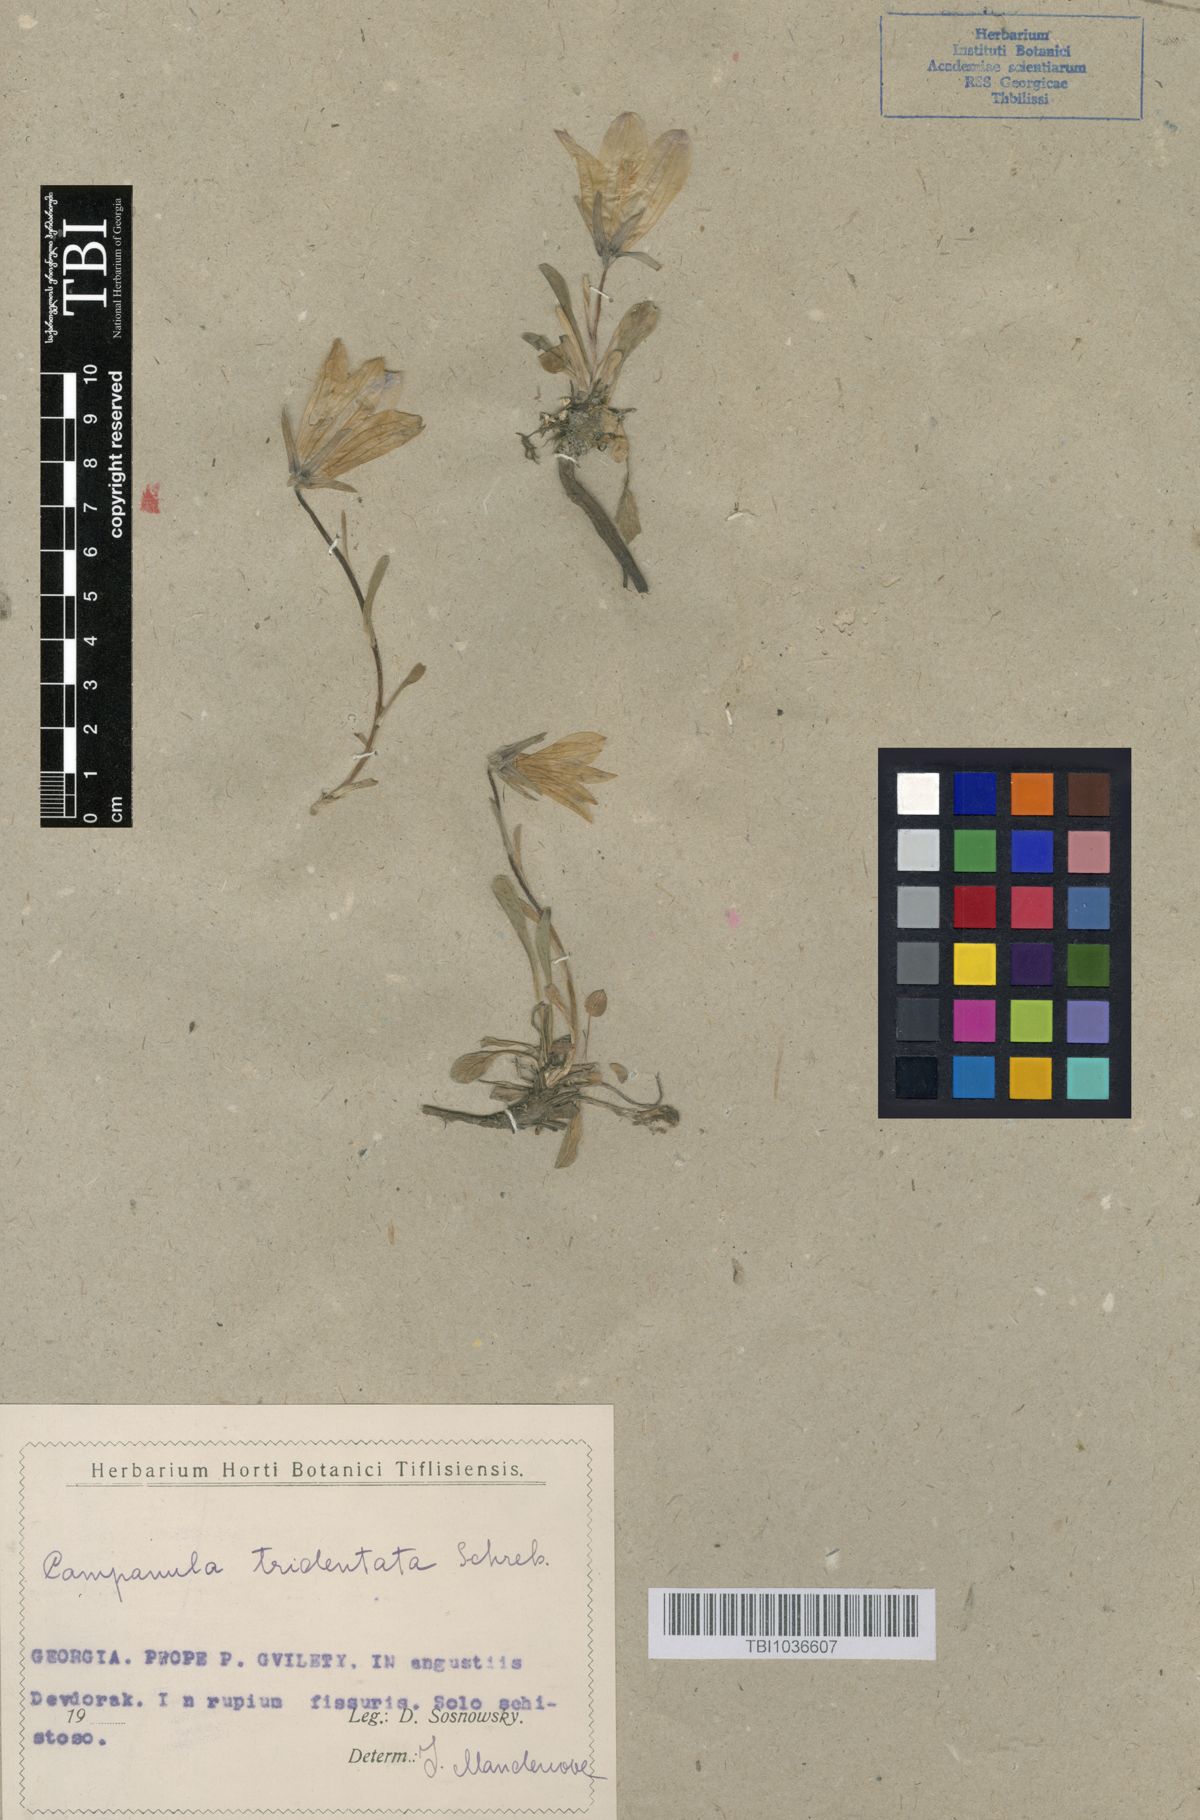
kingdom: Plantae
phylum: Tracheophyta
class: Magnoliopsida
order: Asterales
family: Campanulaceae
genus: Campanula
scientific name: Campanula tridentata
